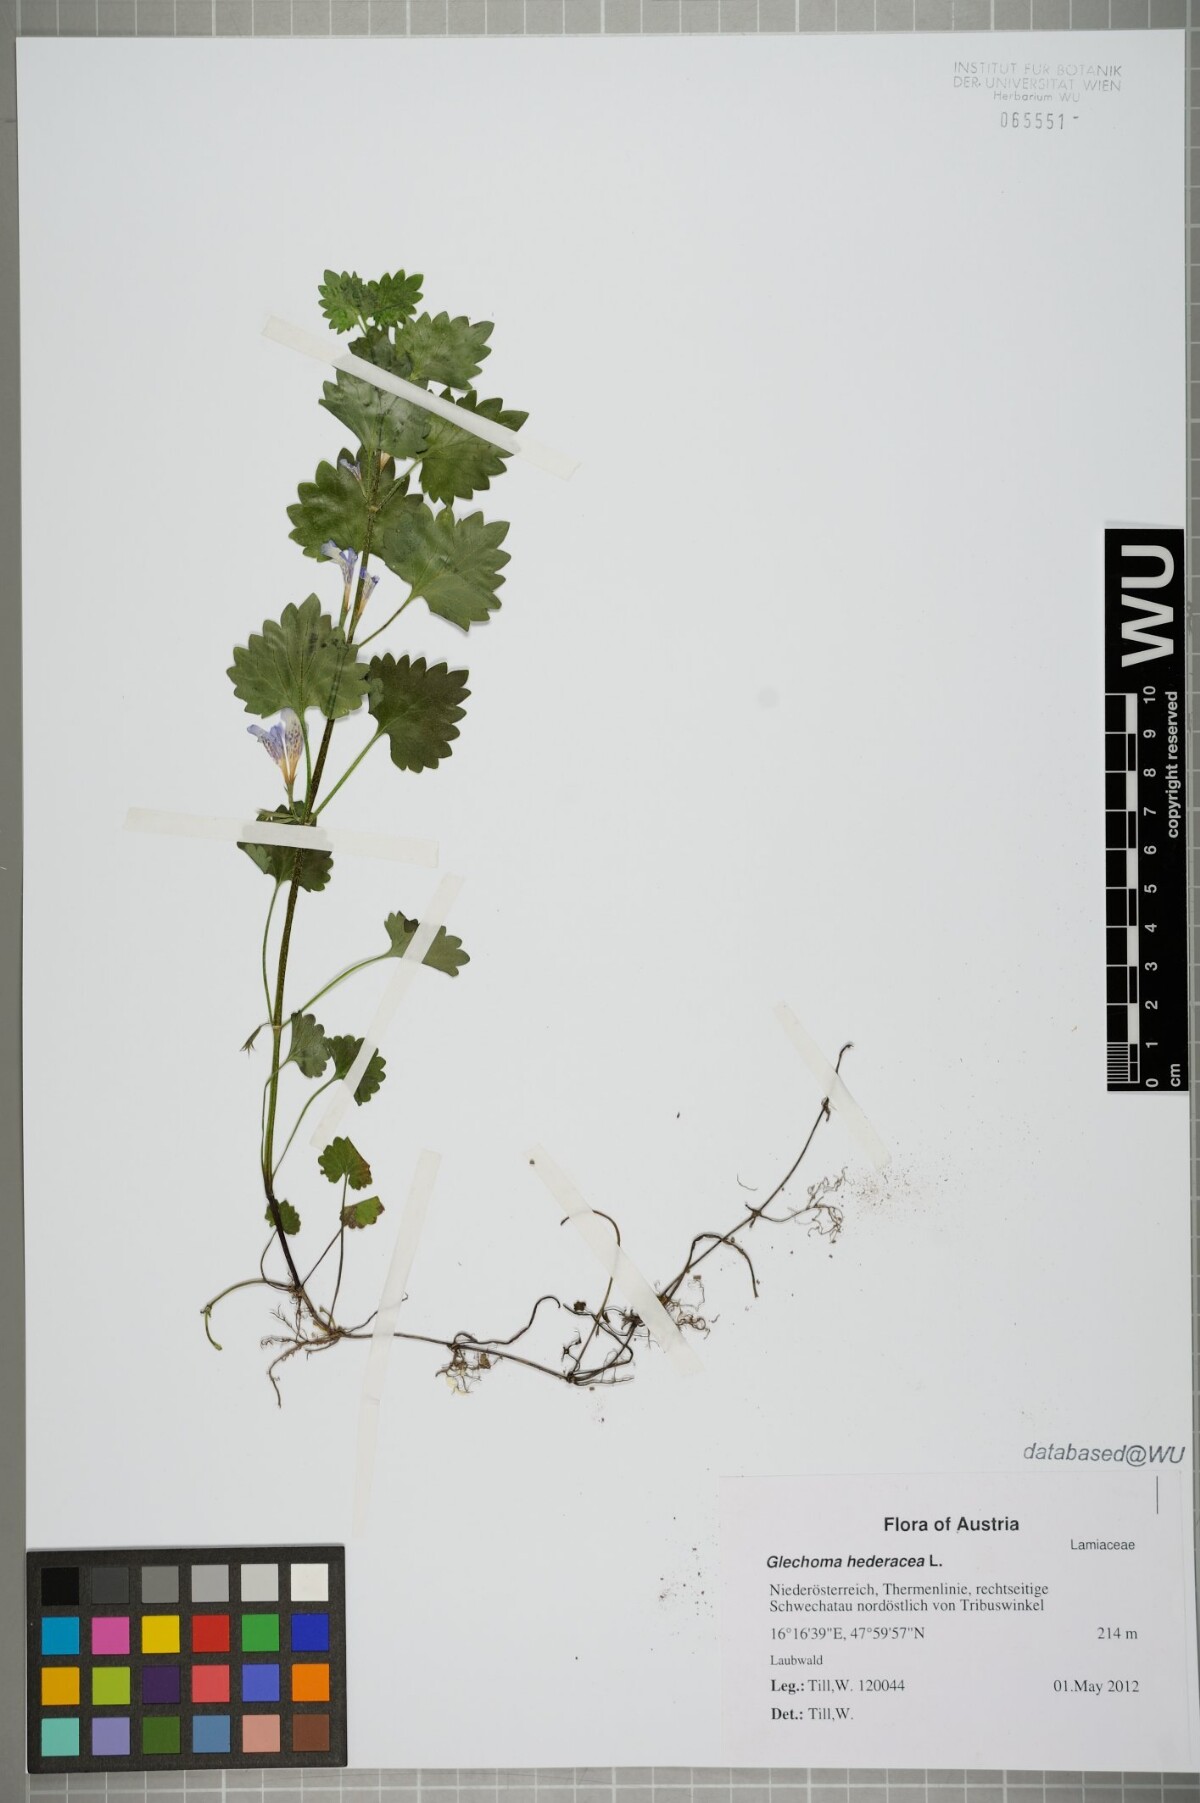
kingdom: Plantae
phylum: Tracheophyta
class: Magnoliopsida
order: Lamiales
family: Lamiaceae
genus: Glechoma
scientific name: Glechoma hederacea
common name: Ground ivy
